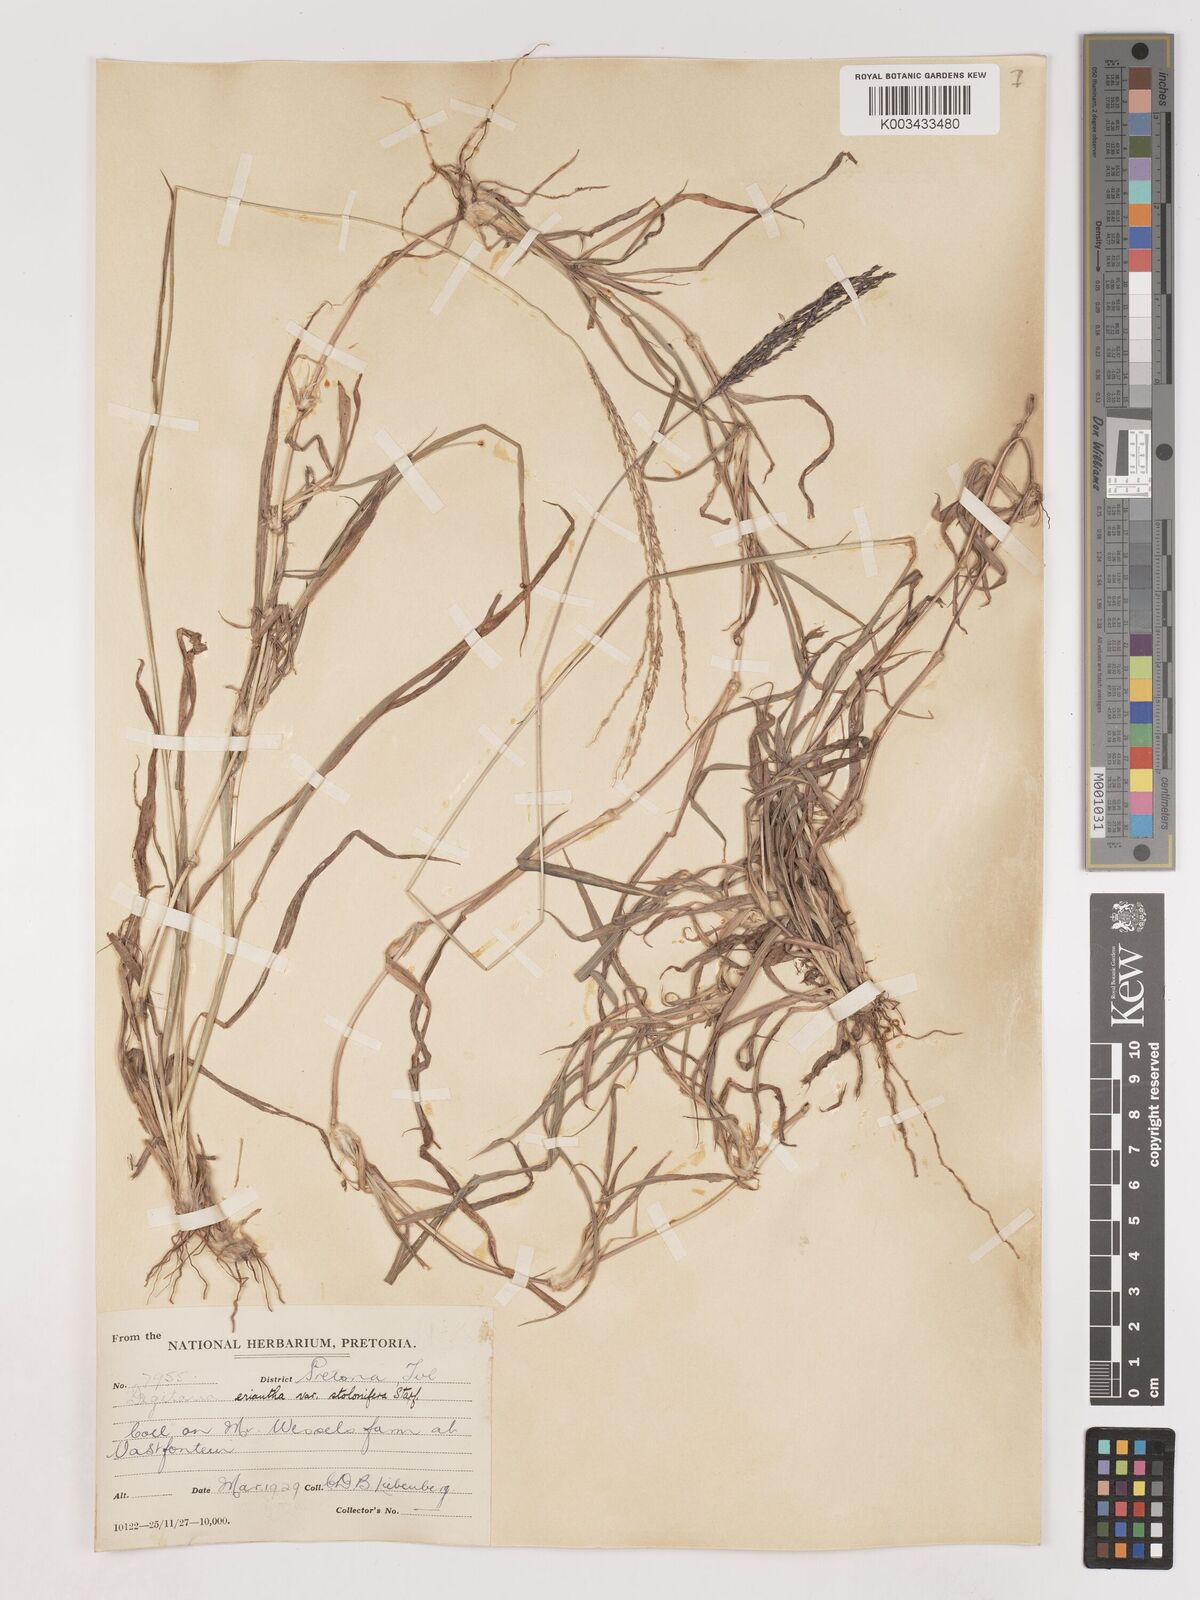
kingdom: Plantae
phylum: Tracheophyta
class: Liliopsida
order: Poales
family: Poaceae
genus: Digitaria
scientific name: Digitaria eriantha
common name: Digitgrass
